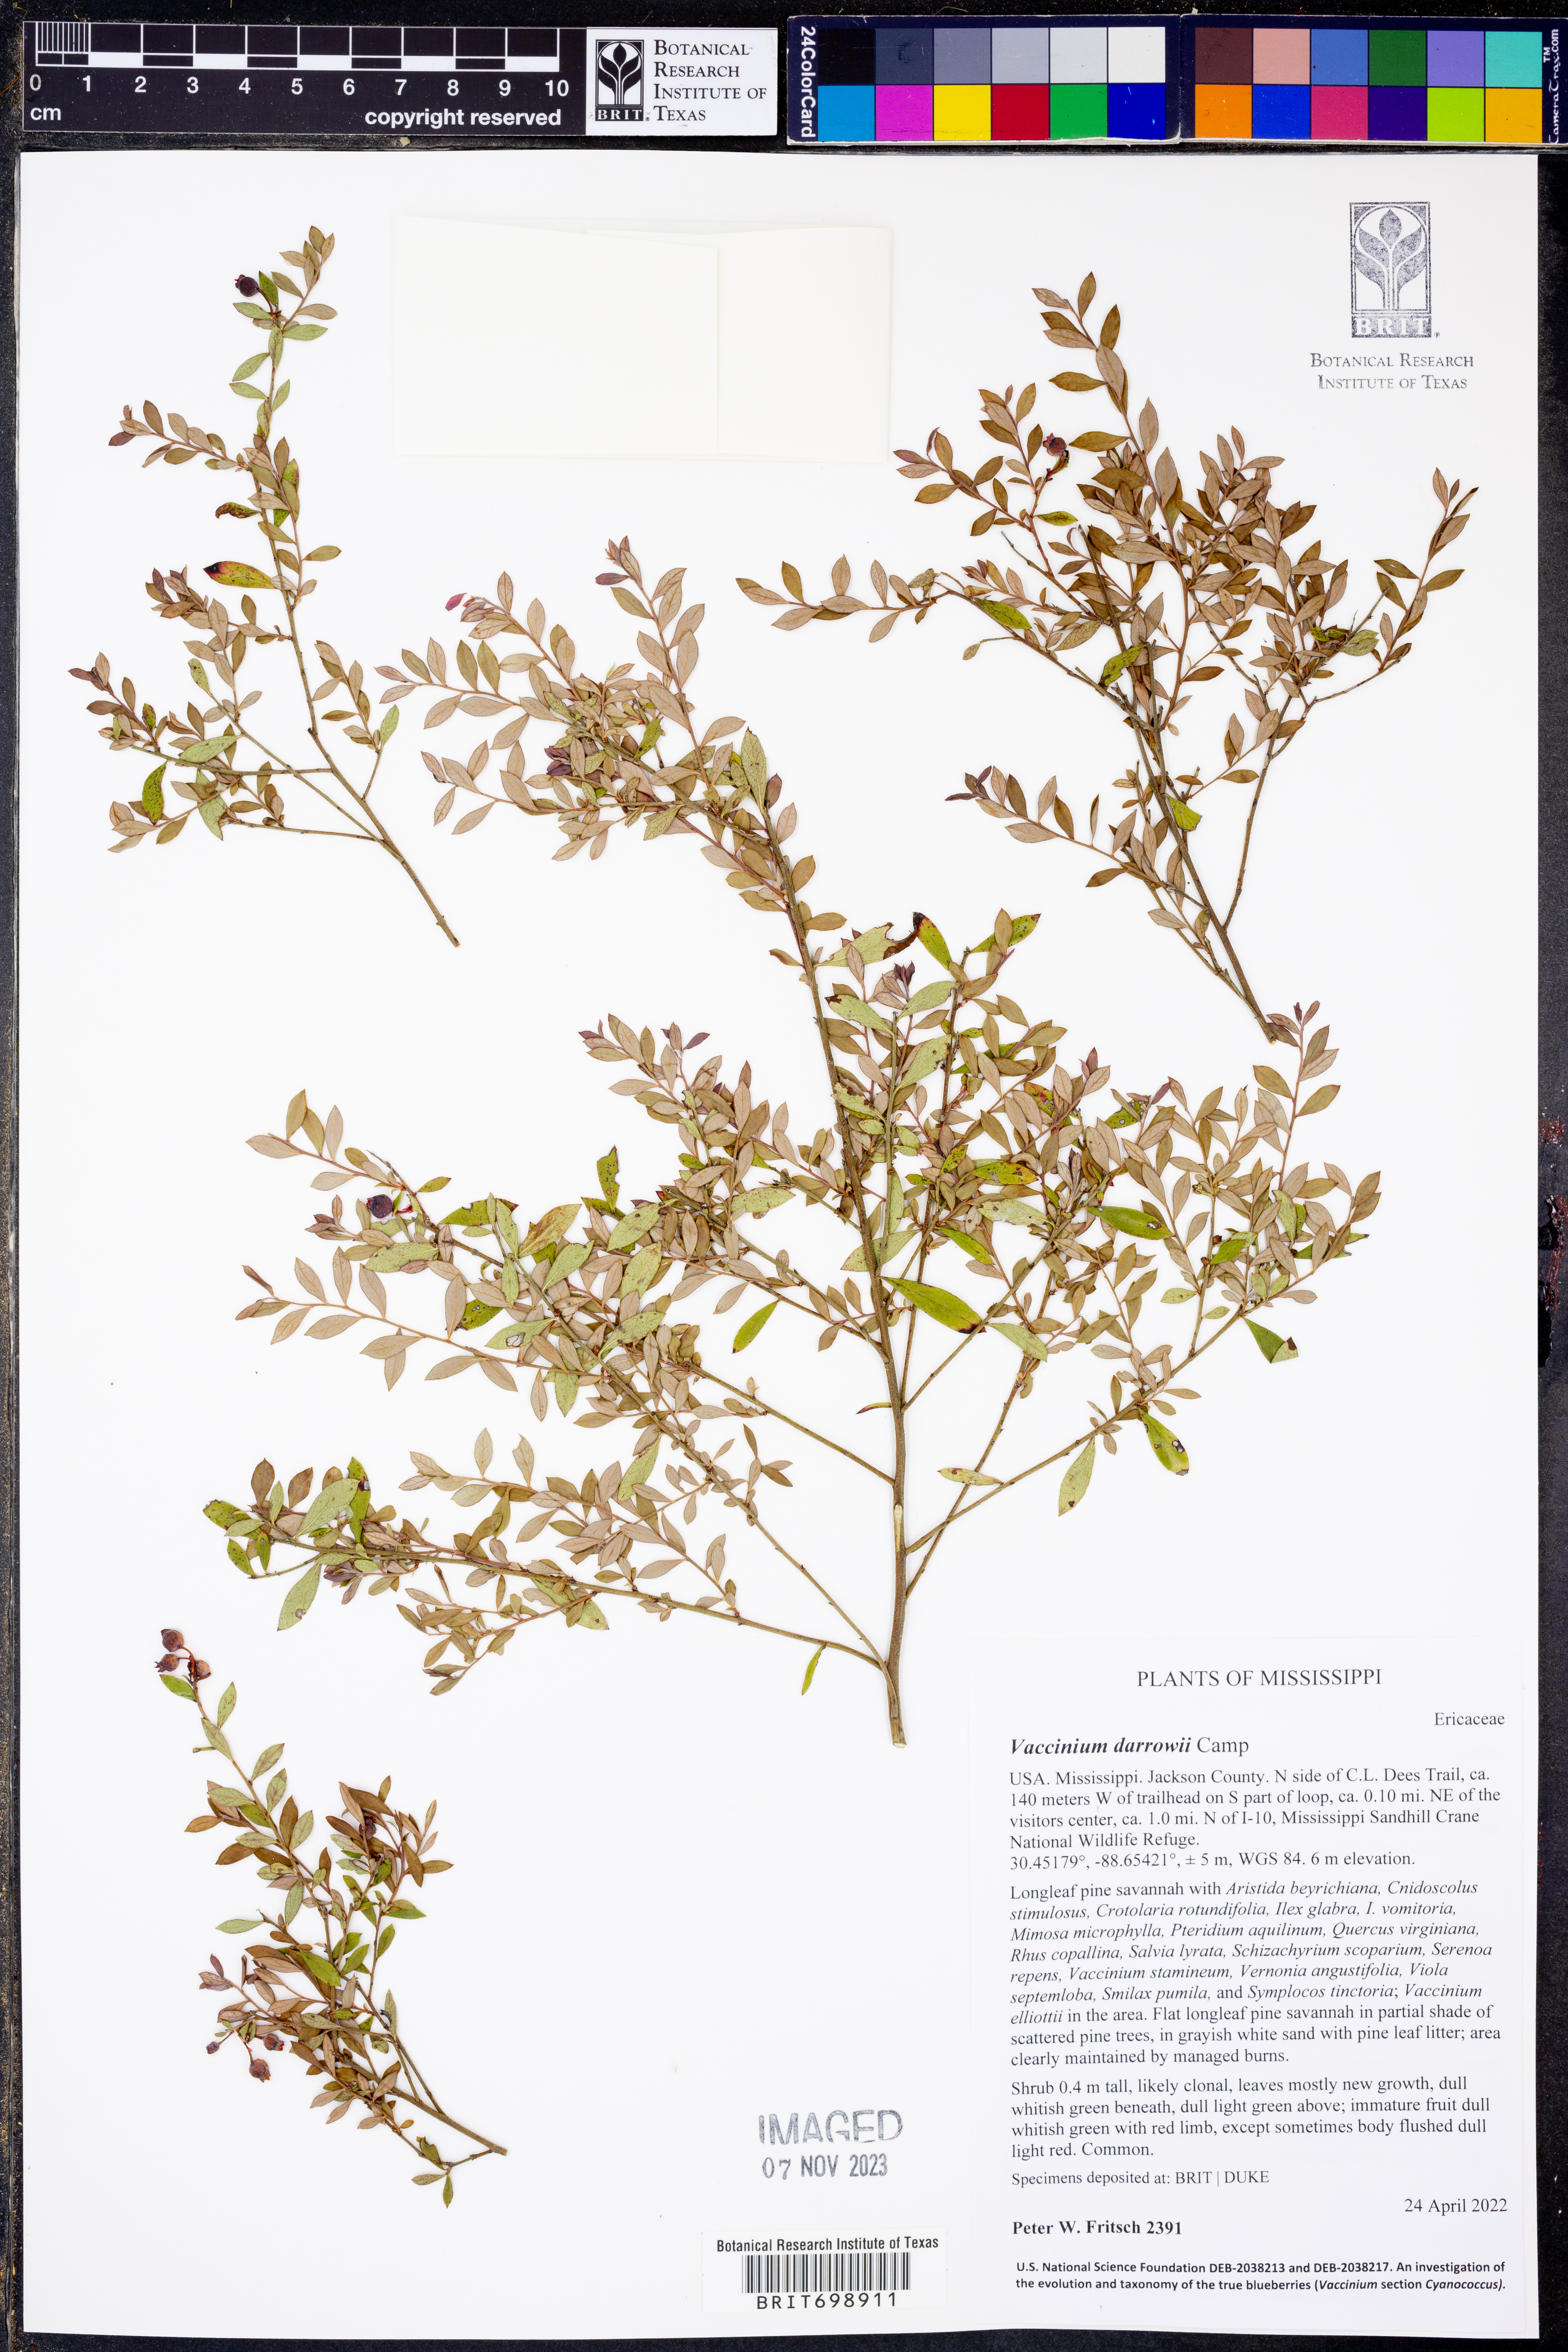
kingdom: Plantae
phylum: Tracheophyta
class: Magnoliopsida
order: Ericales
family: Ericaceae
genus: Vaccinium
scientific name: Vaccinium darrowii
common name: Darrow's blueberry
